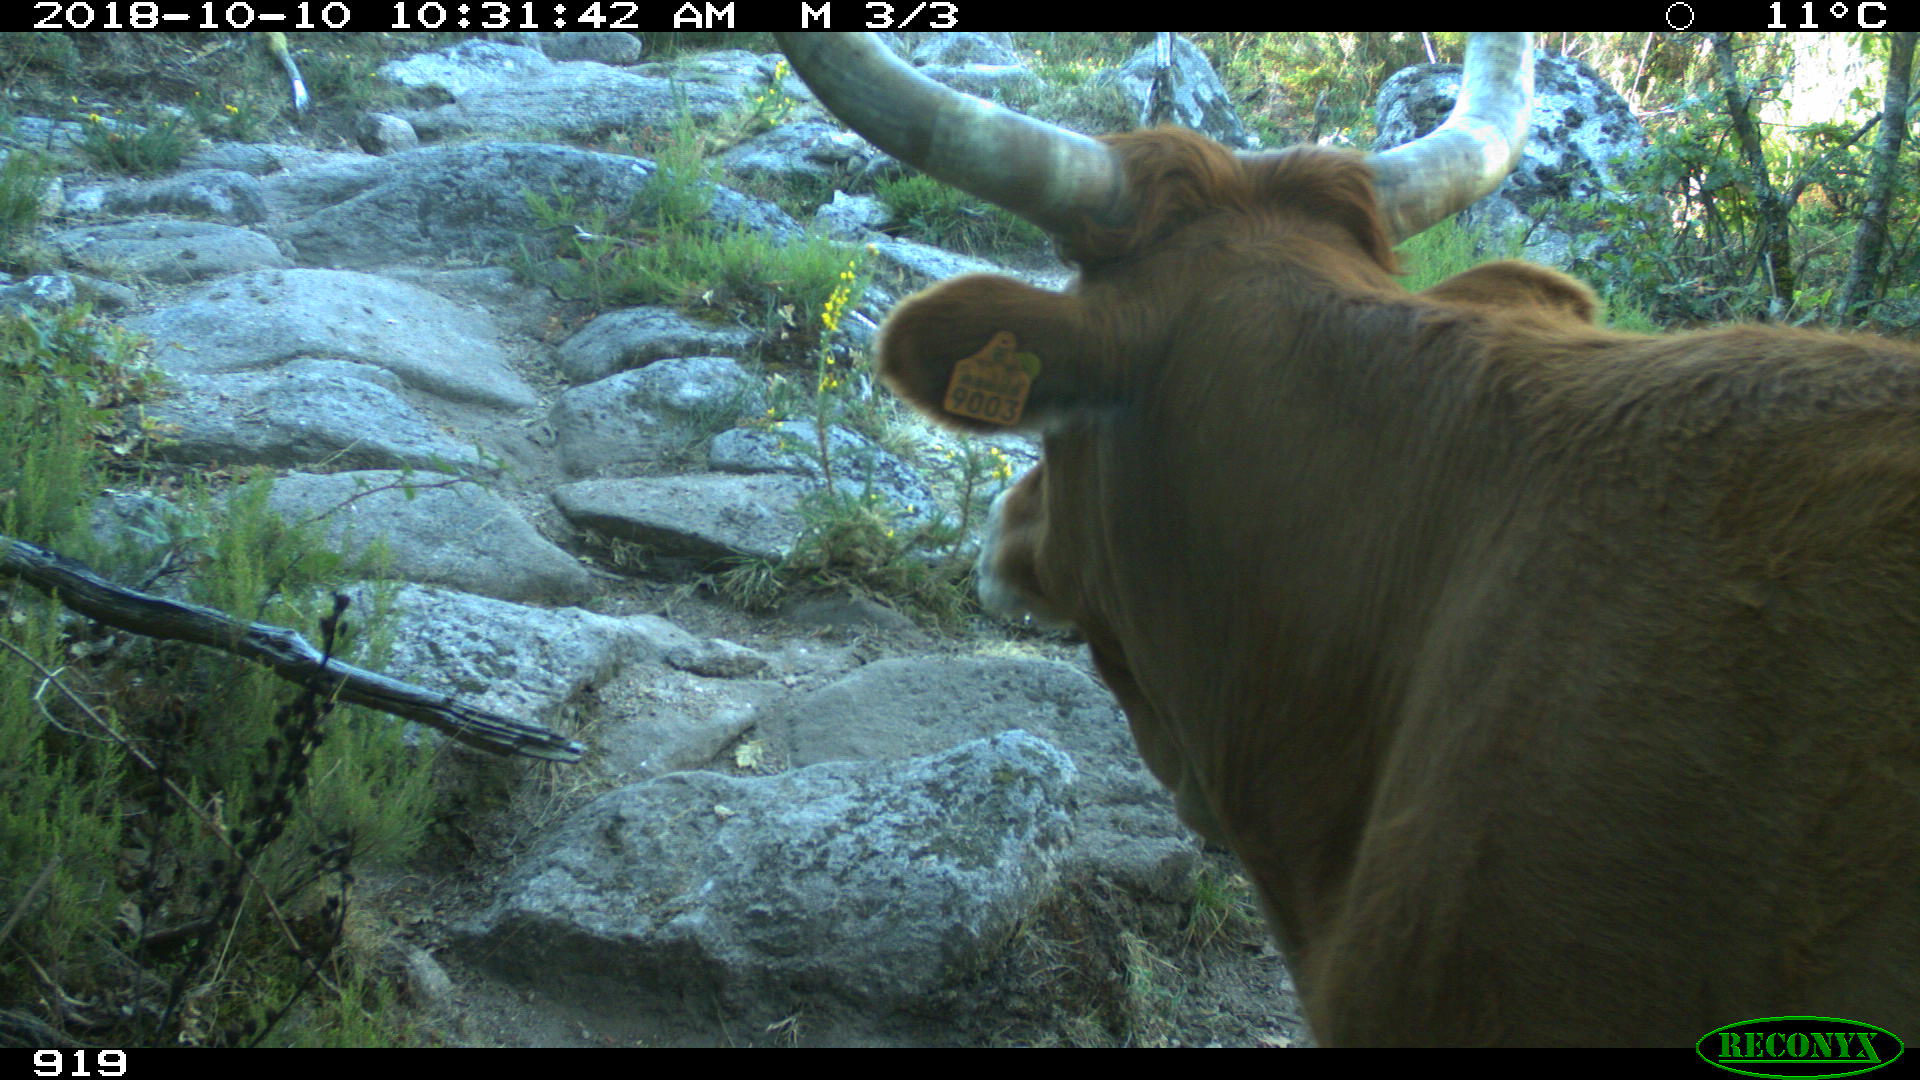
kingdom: Animalia
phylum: Chordata
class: Mammalia
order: Artiodactyla
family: Bovidae
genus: Bos
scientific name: Bos taurus
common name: Domesticated cattle
